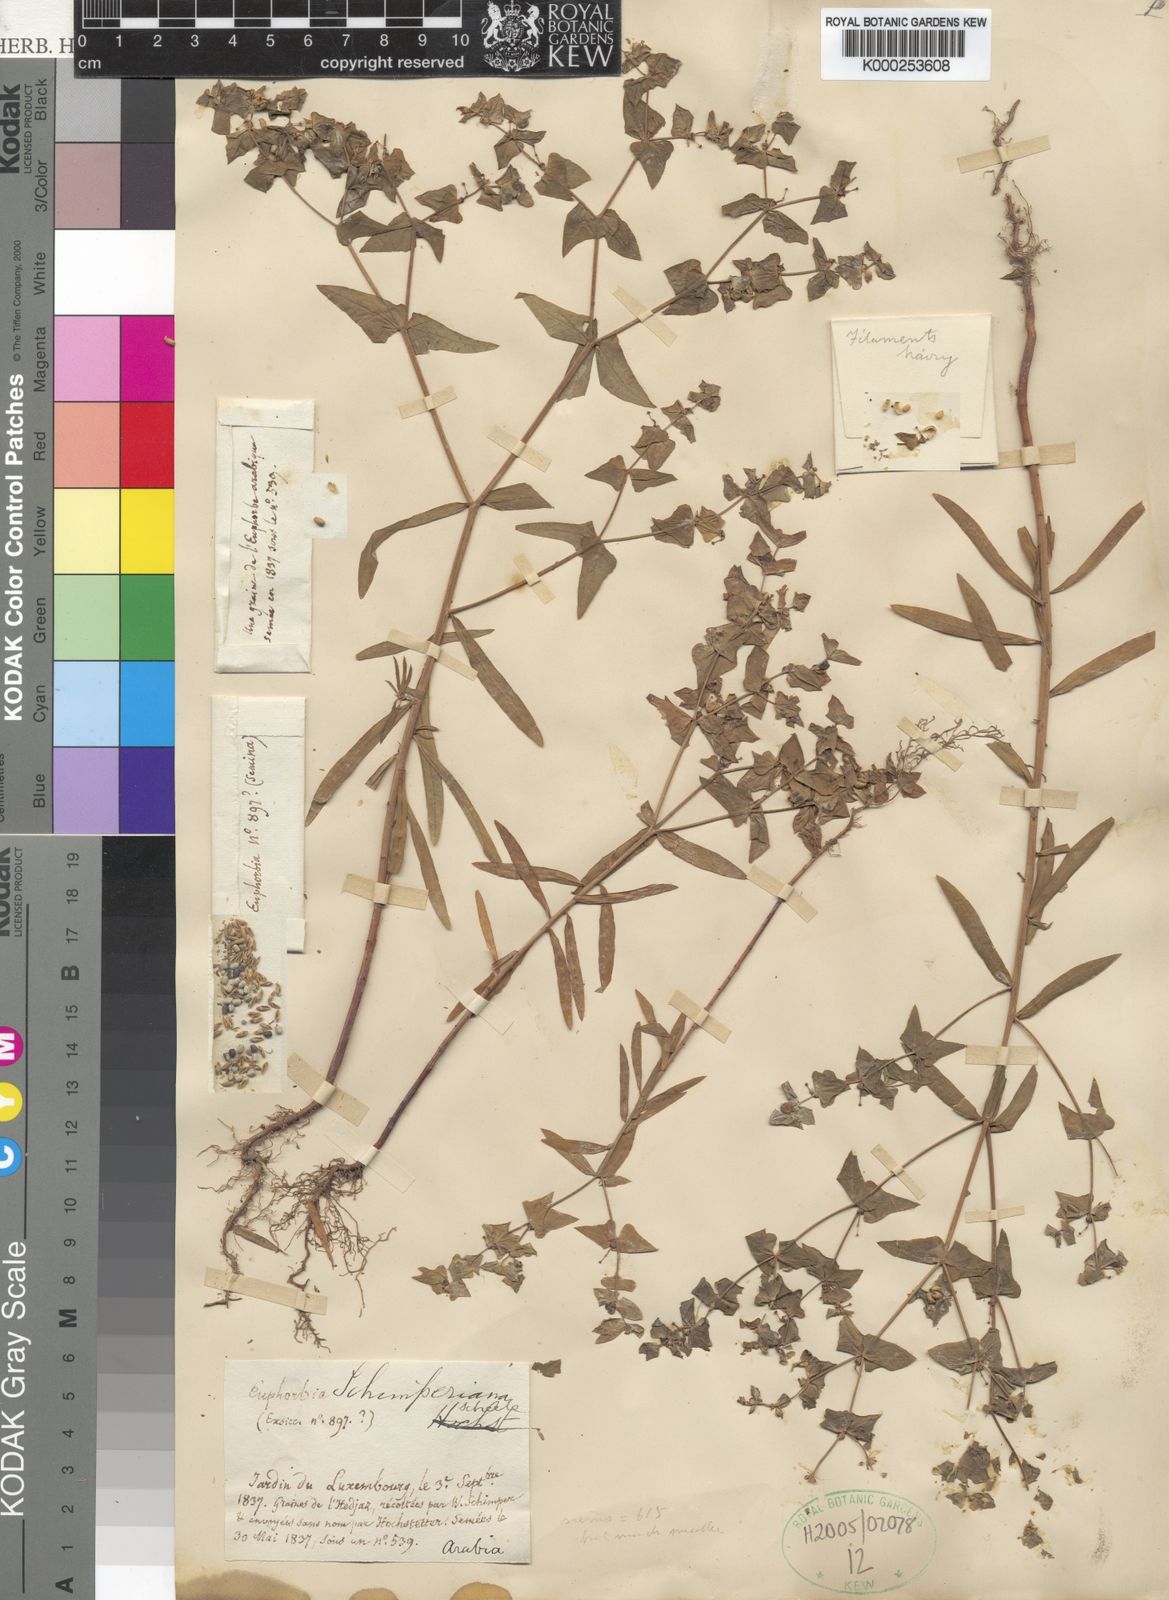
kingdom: Plantae
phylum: Tracheophyta
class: Magnoliopsida
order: Malpighiales
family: Euphorbiaceae
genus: Euphorbia
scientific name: Euphorbia schimperiana
